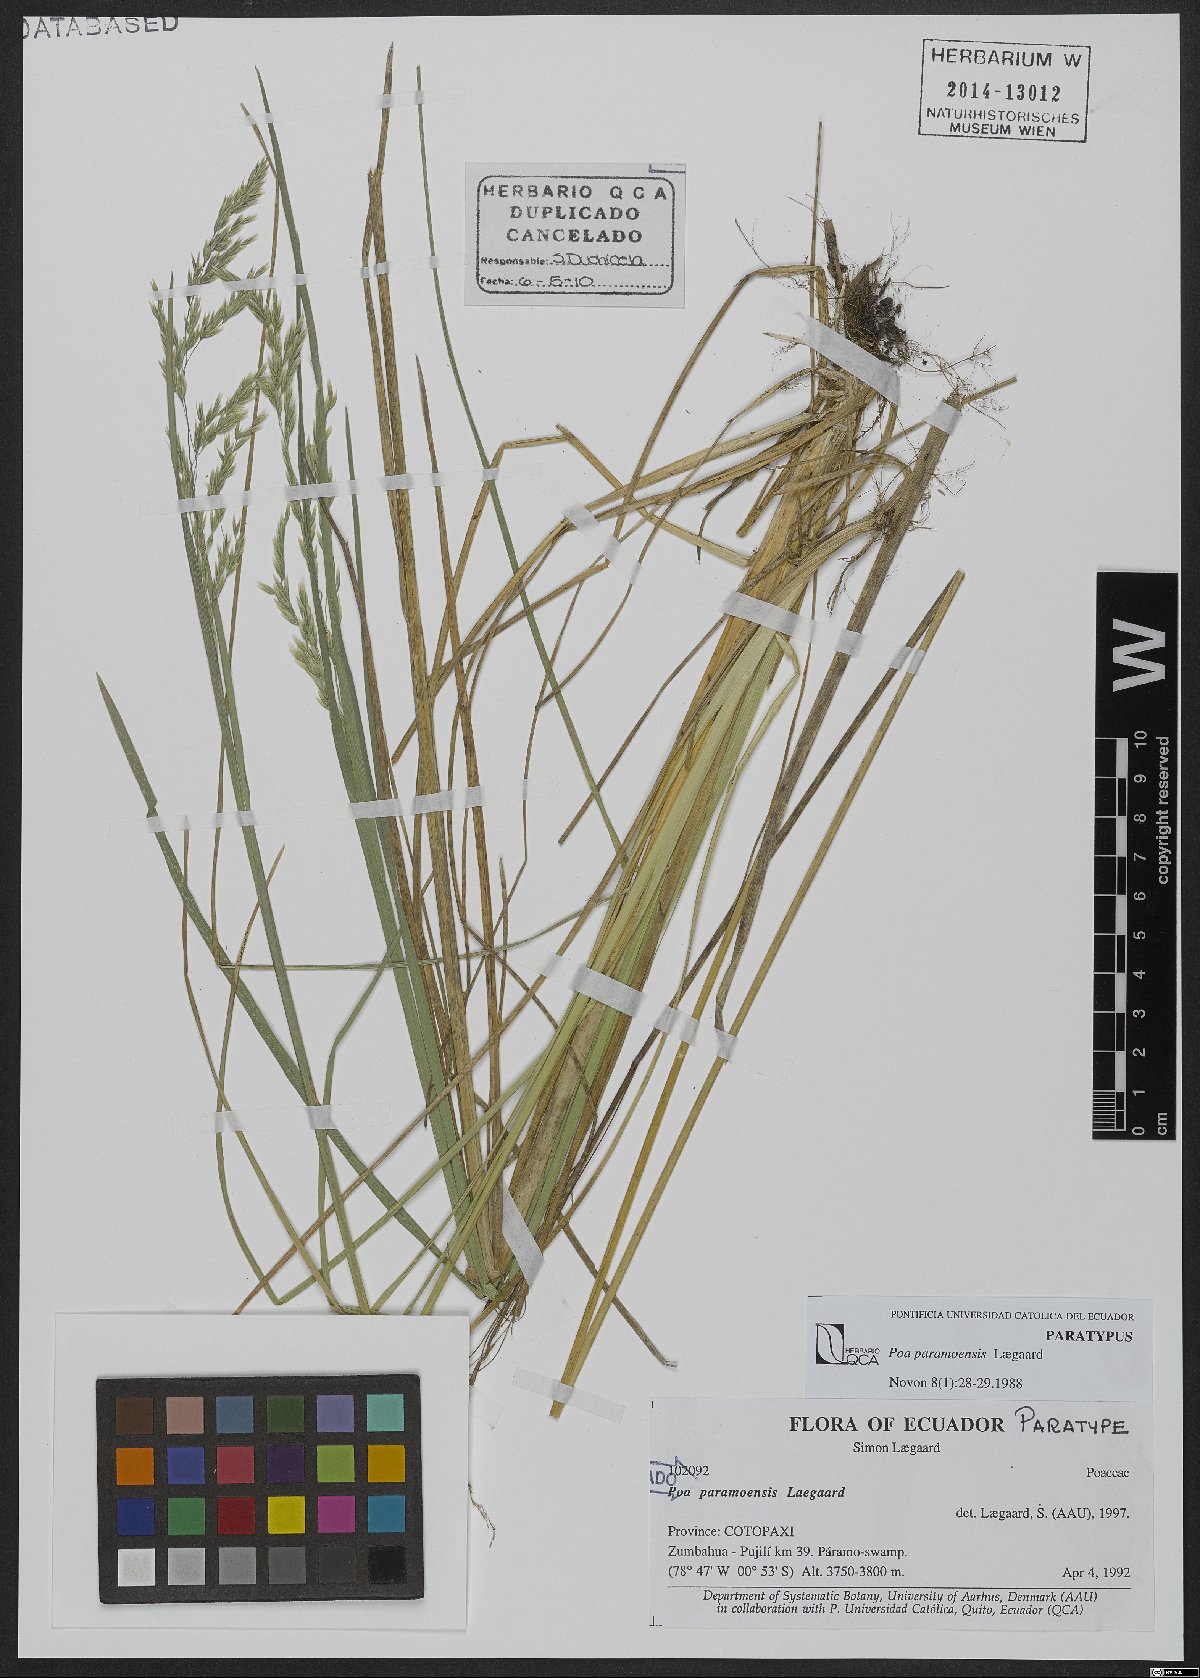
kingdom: Plantae
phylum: Tracheophyta
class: Liliopsida
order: Poales
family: Poaceae
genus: Poa
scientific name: Poa huancavelicae
